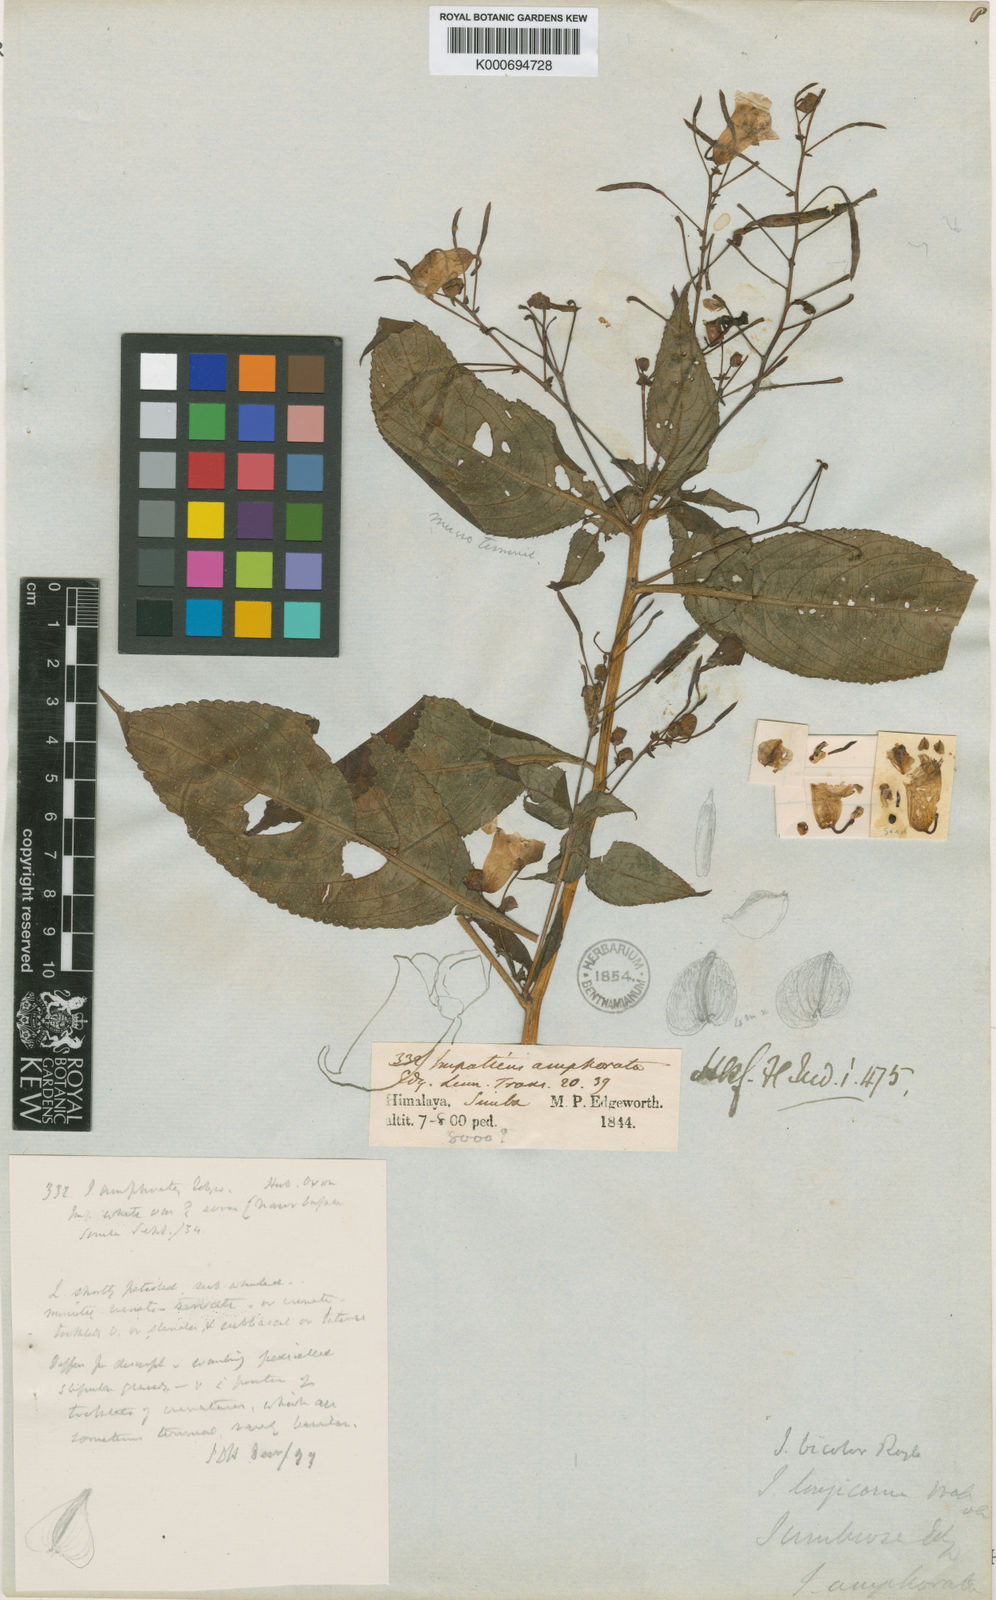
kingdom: Plantae
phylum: Tracheophyta
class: Magnoliopsida
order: Ericales
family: Balsaminaceae
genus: Impatiens
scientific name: Impatiens bicolor
